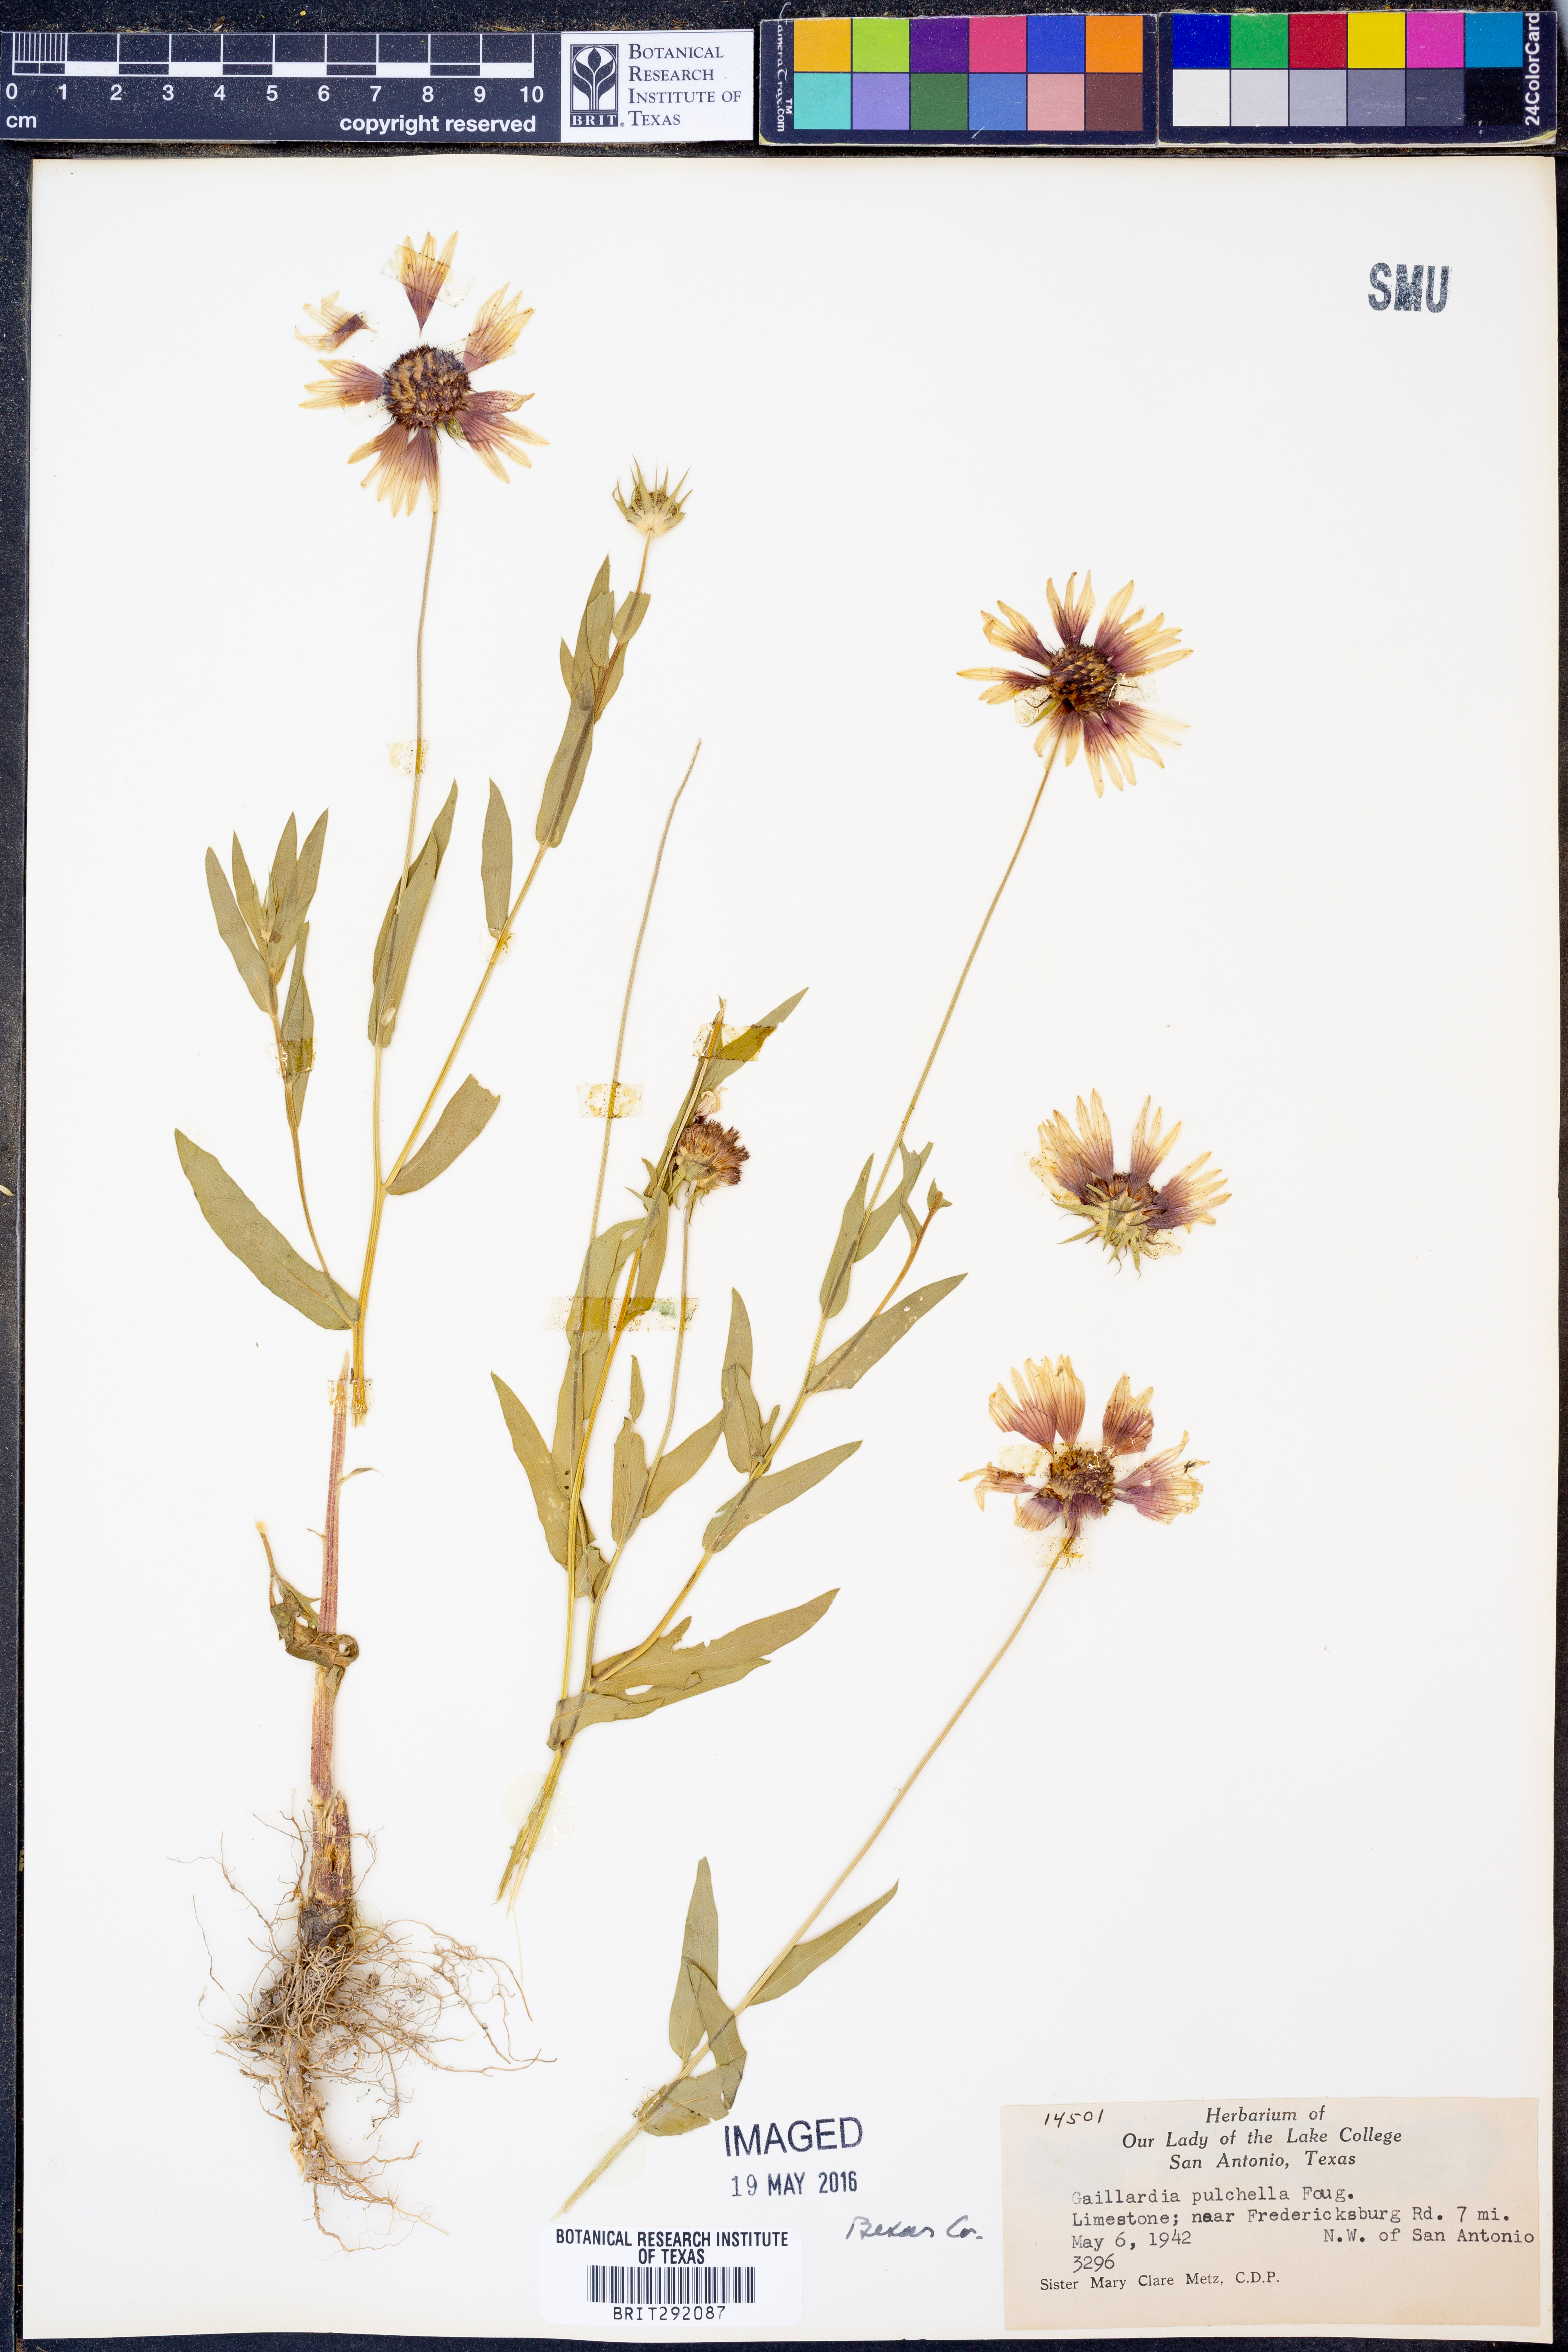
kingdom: Plantae
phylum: Tracheophyta
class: Magnoliopsida
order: Asterales
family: Asteraceae
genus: Gaillardia
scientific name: Gaillardia pulchella
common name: Firewheel
